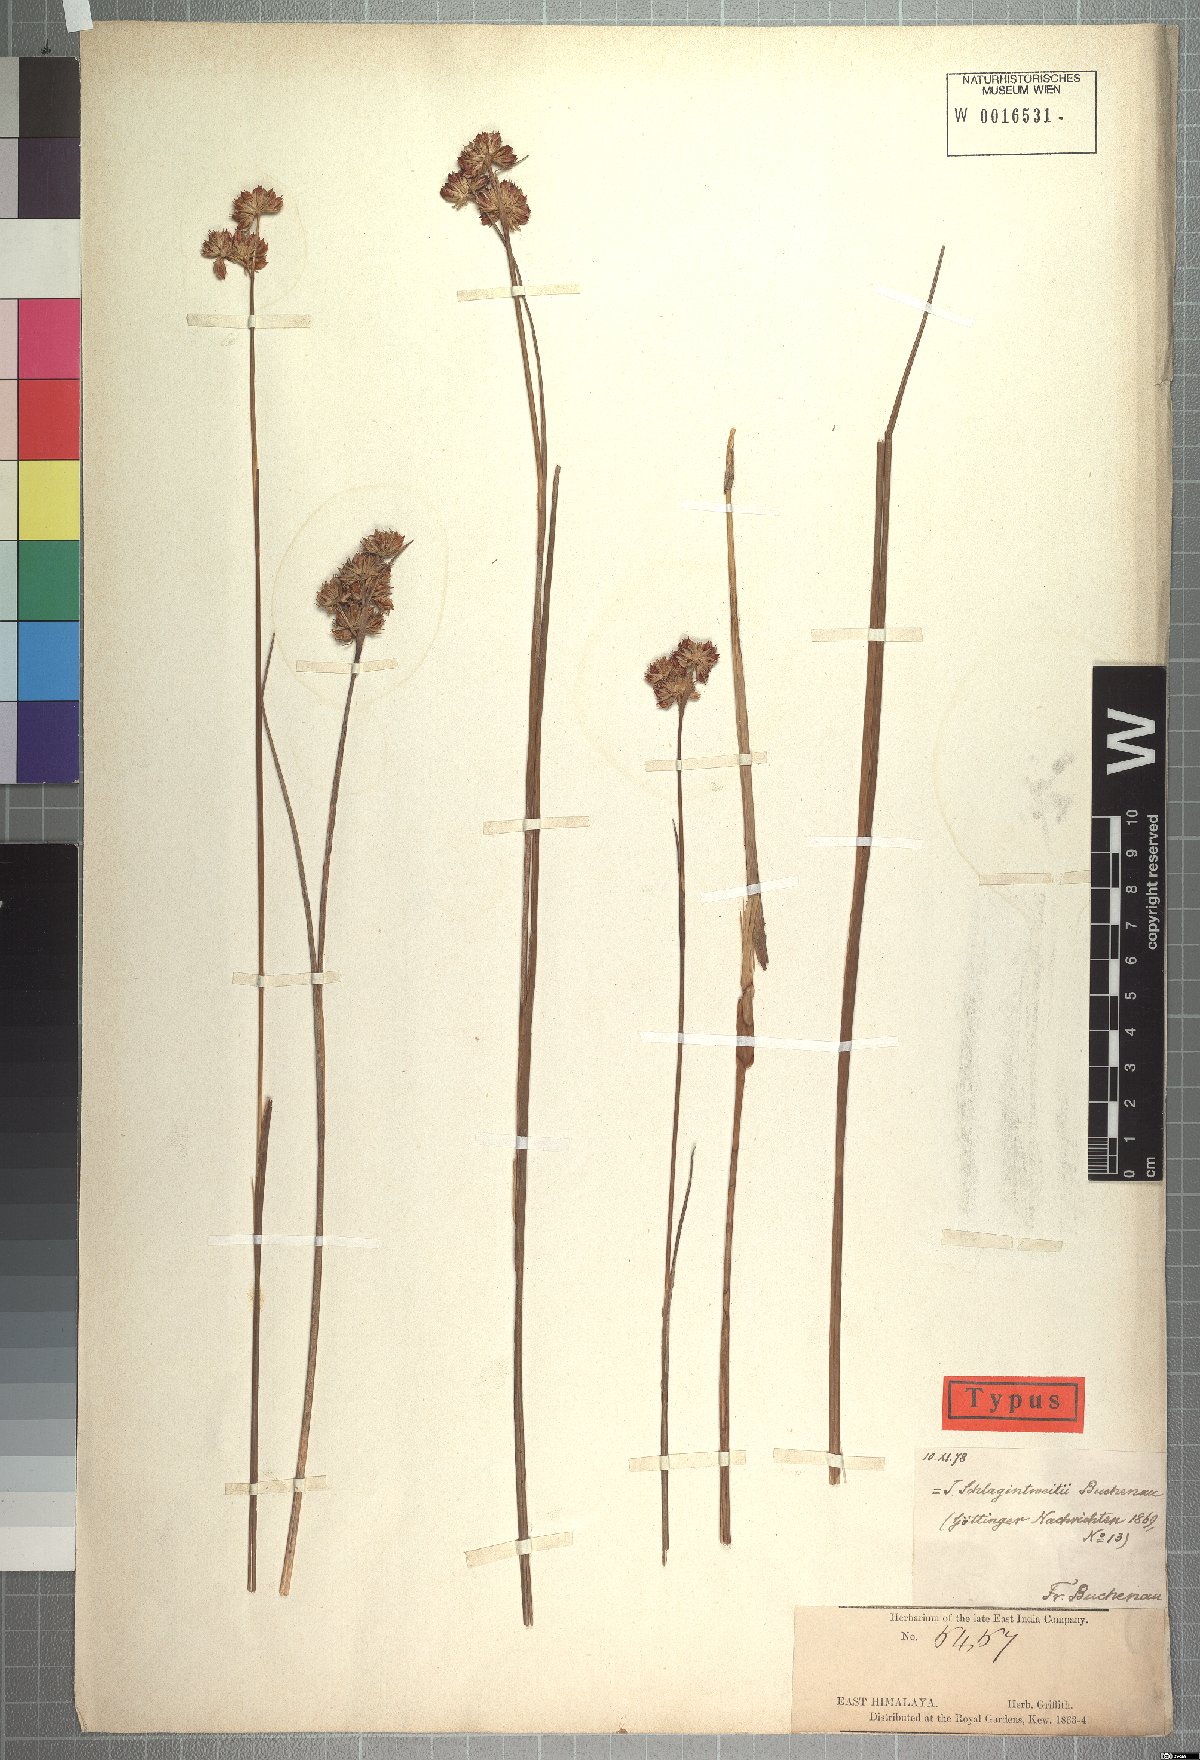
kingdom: Plantae
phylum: Tracheophyta
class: Liliopsida
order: Poales
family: Juncaceae
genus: Juncus
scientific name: Juncus himalensis
